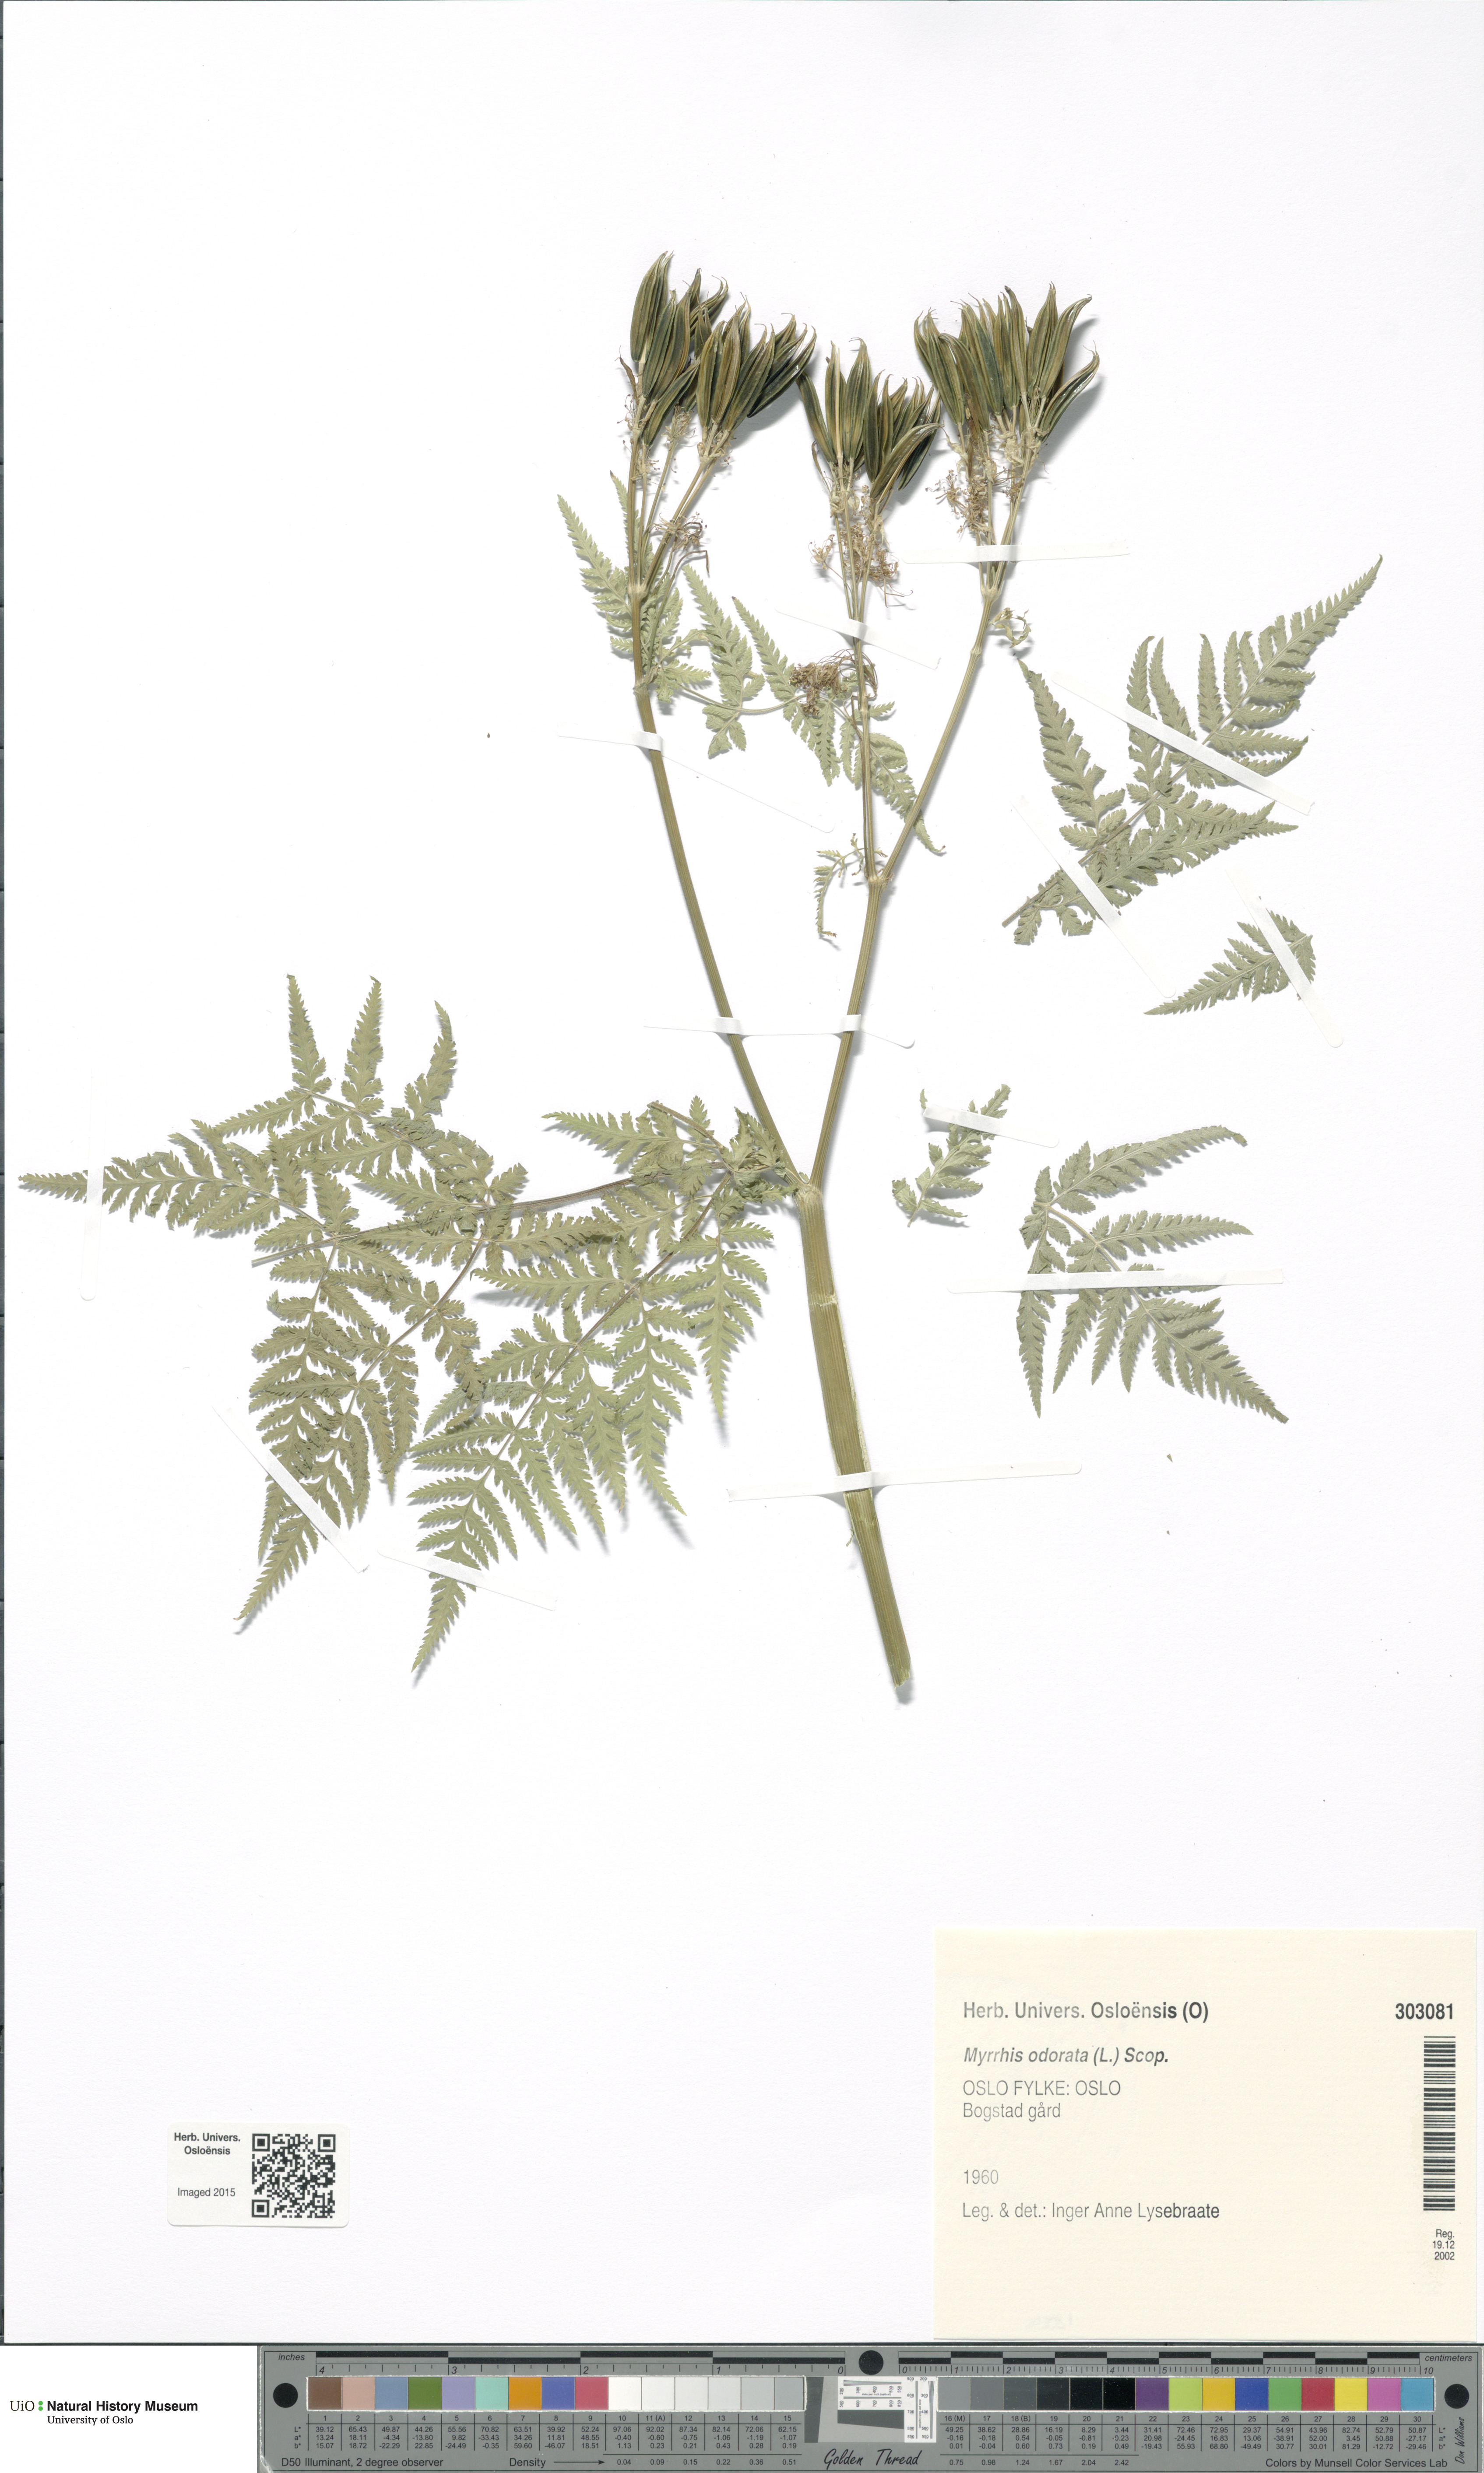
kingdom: Plantae
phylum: Tracheophyta
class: Magnoliopsida
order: Apiales
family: Apiaceae
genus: Myrrhis
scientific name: Myrrhis odorata
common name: Sweet cicely
